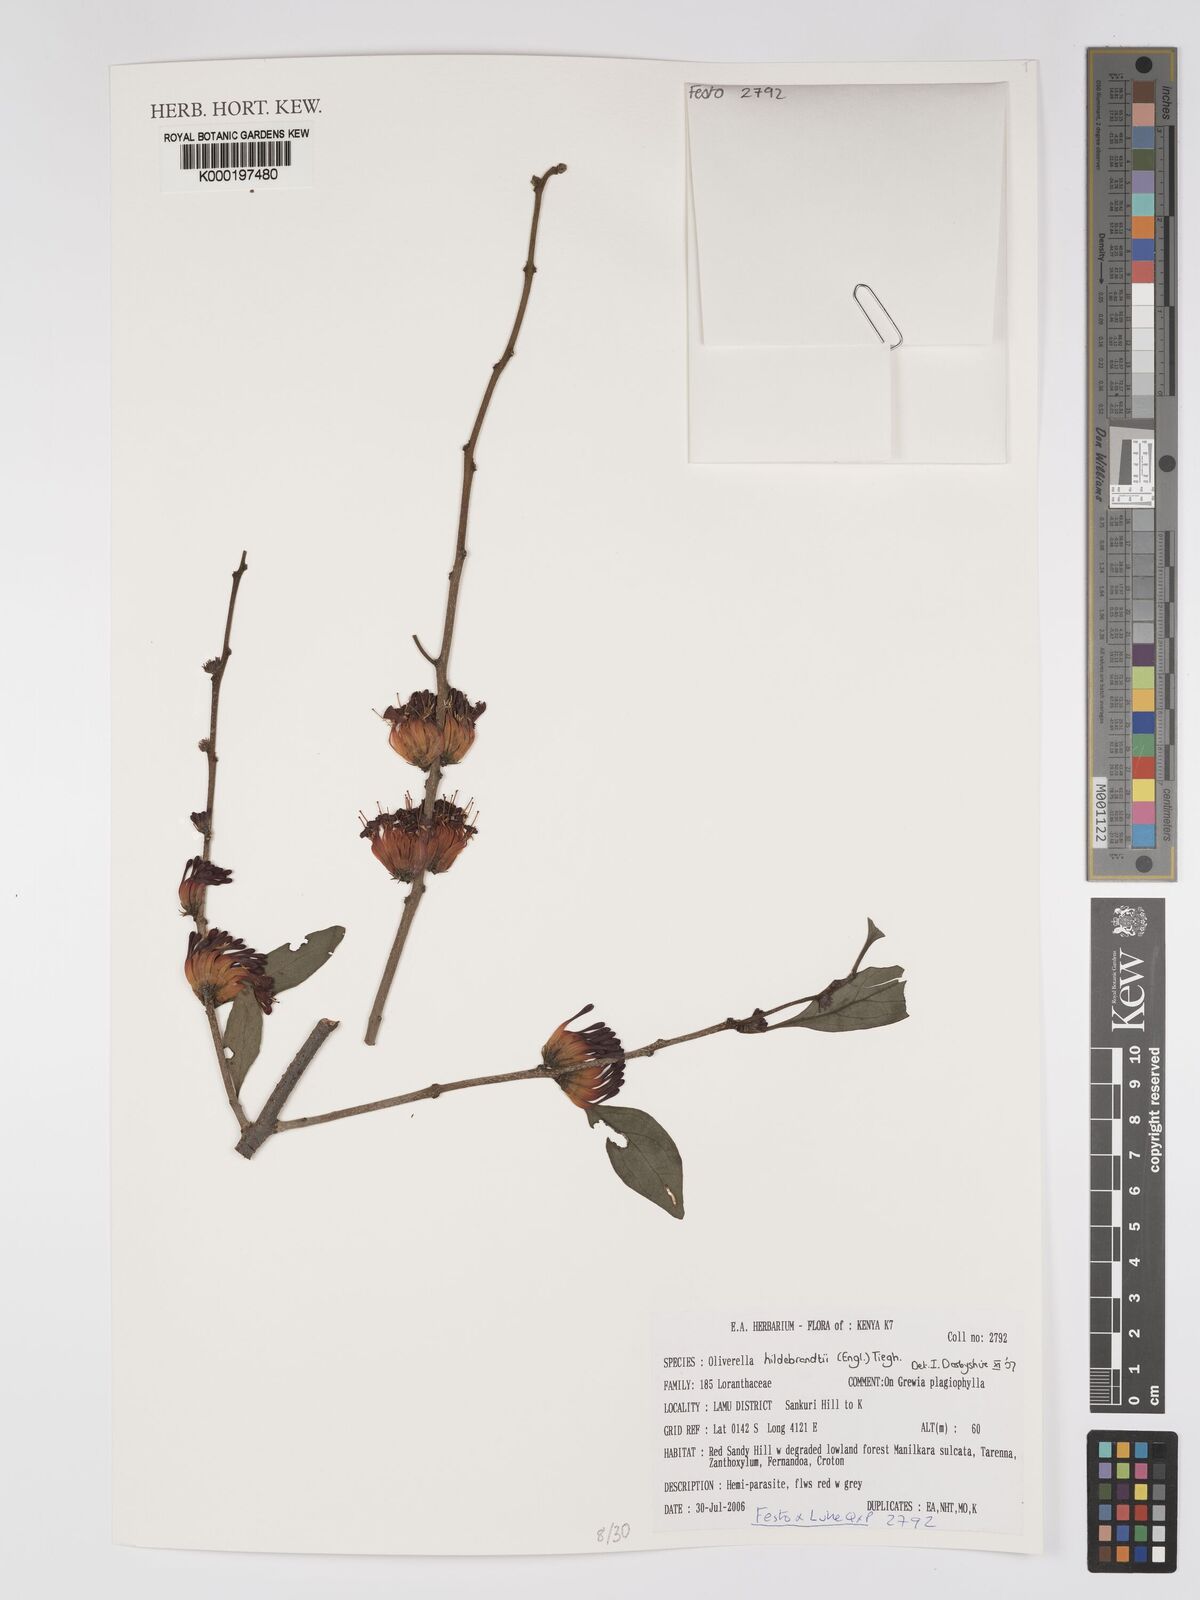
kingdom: Plantae
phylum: Tracheophyta
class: Magnoliopsida
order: Santalales
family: Loranthaceae
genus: Oliverella
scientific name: Oliverella hildebrandtii
